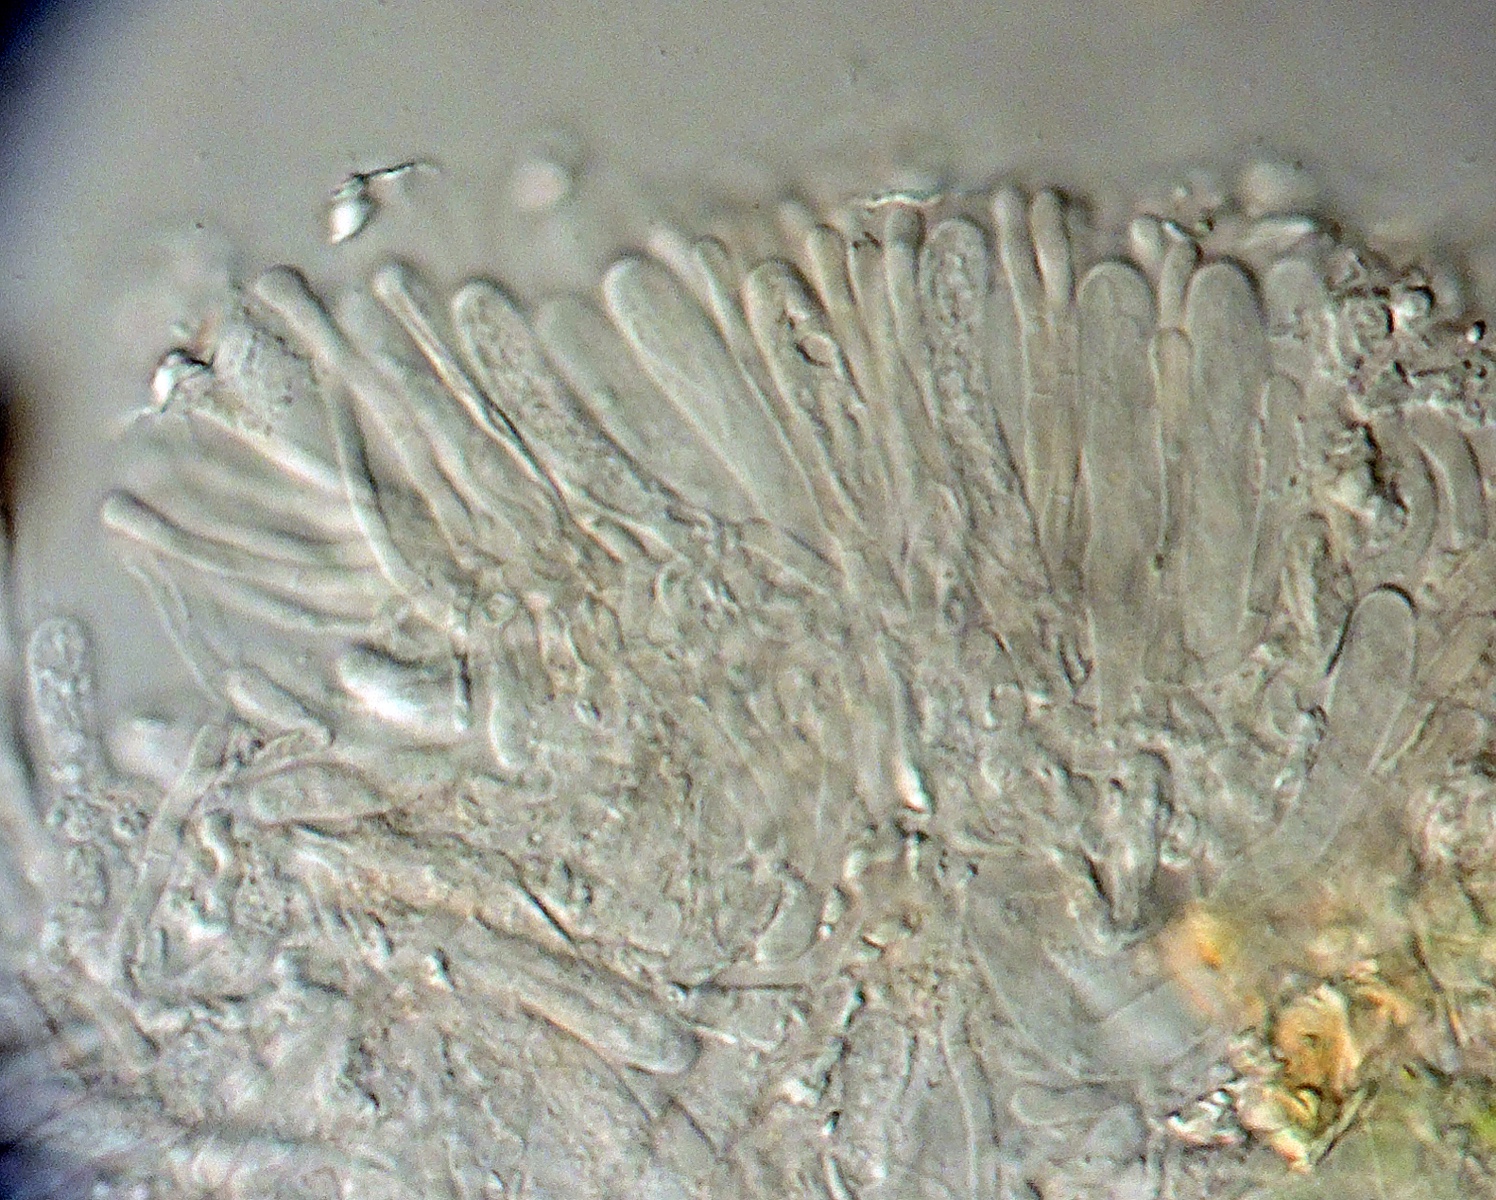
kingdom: Fungi
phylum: Ascomycota
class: Orbiliomycetes
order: Orbiliales
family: Orbiliaceae
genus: Orbilia
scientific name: Orbilia
